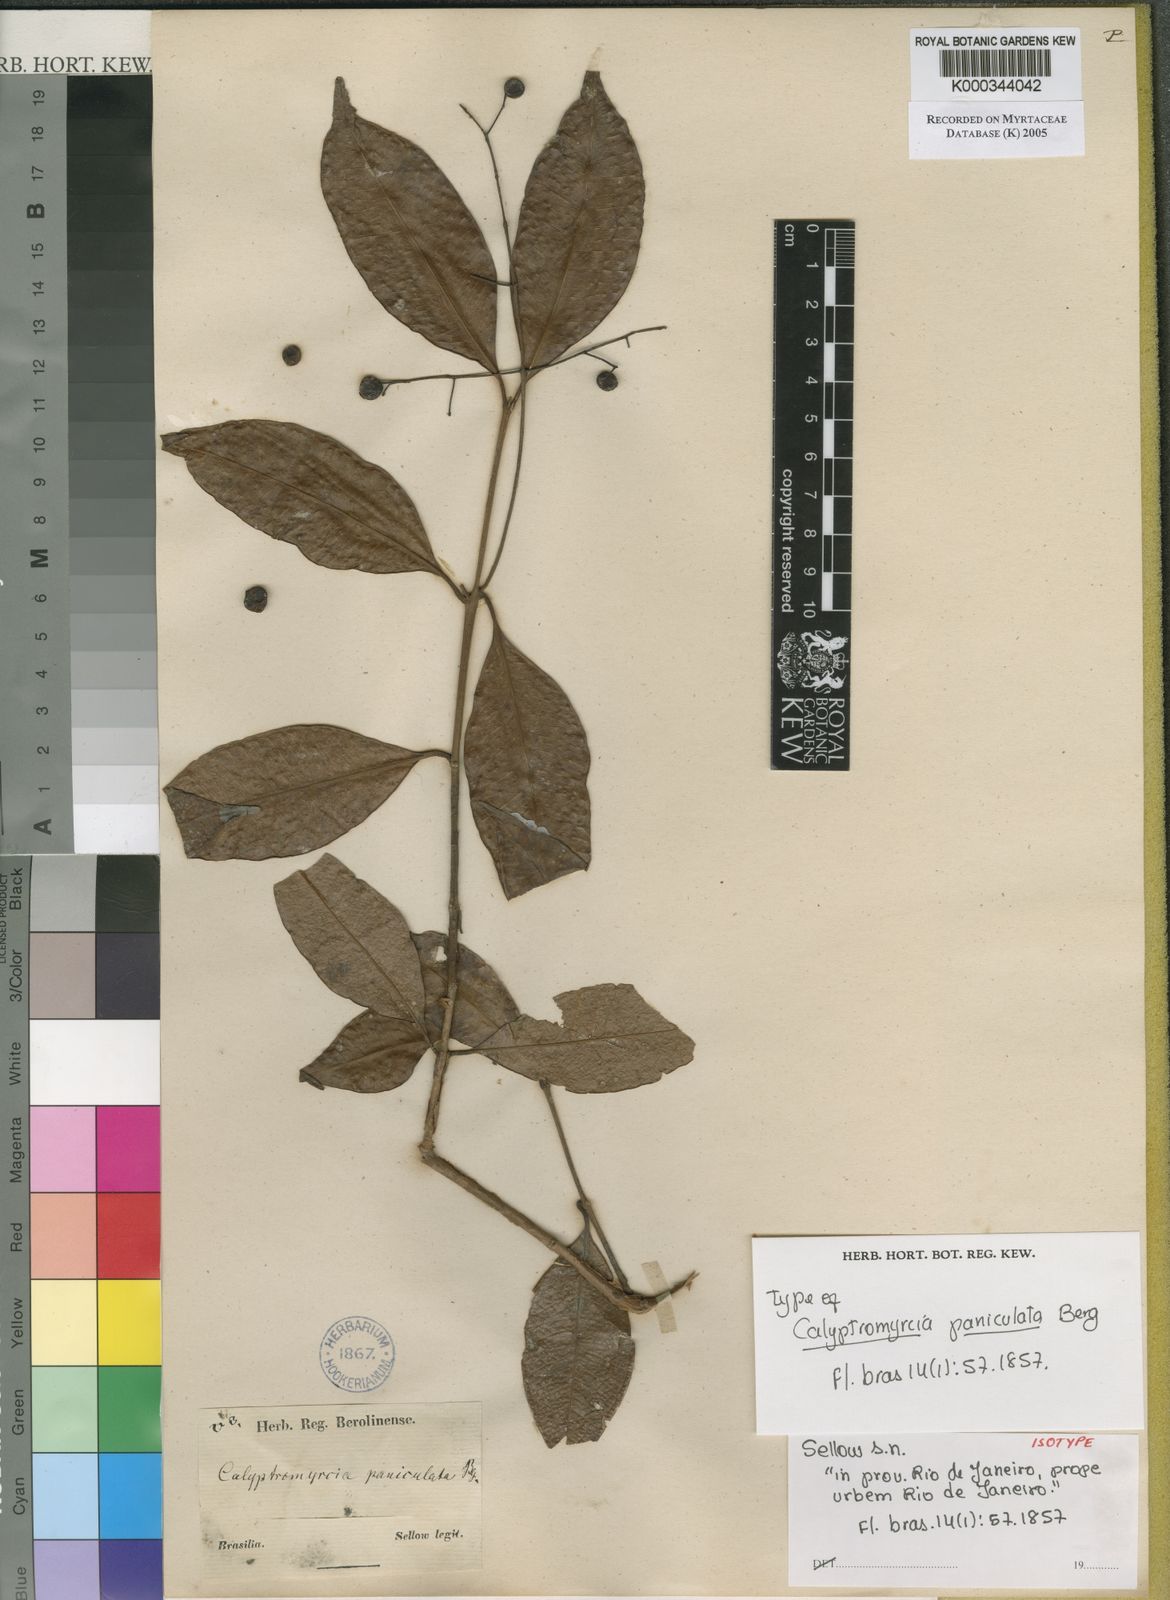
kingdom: Plantae
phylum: Tracheophyta
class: Magnoliopsida
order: Myrtales
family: Myrtaceae
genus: Myrcia
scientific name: Myrcia guianensis
